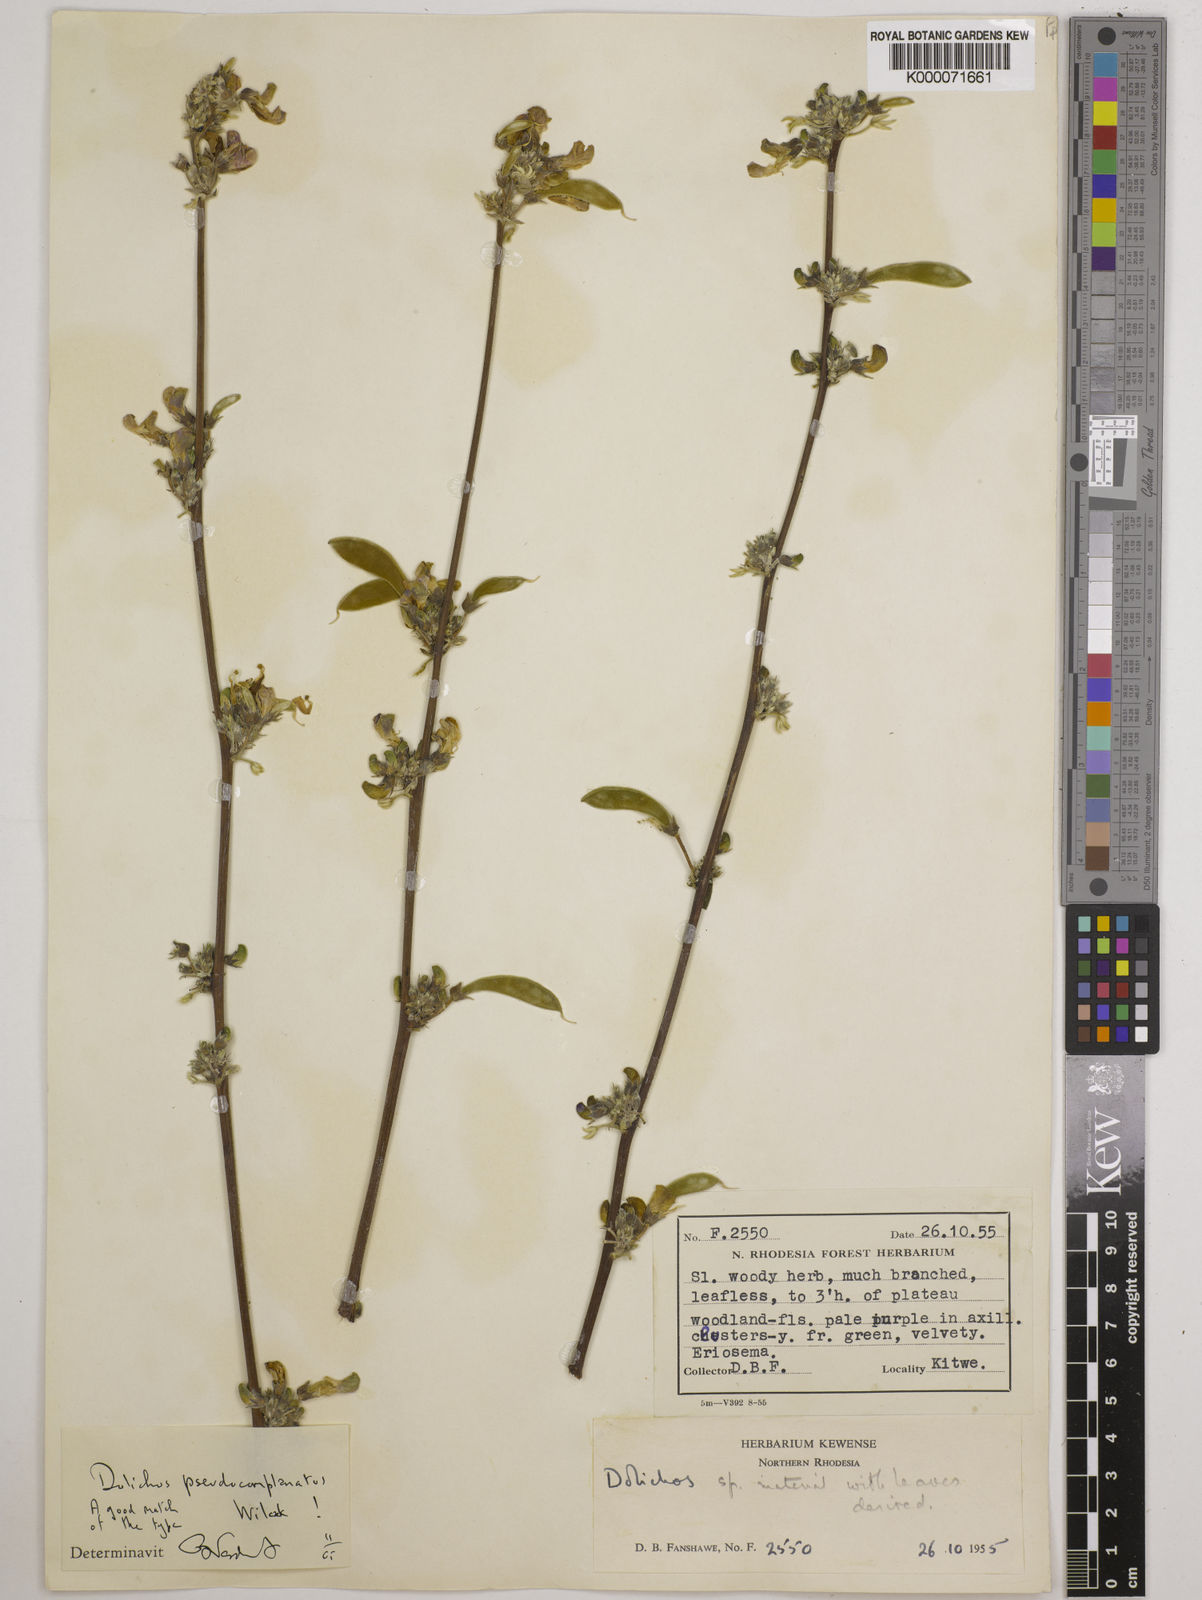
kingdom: Plantae
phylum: Tracheophyta
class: Magnoliopsida
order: Fabales
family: Fabaceae
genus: Dolichos
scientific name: Dolichos
